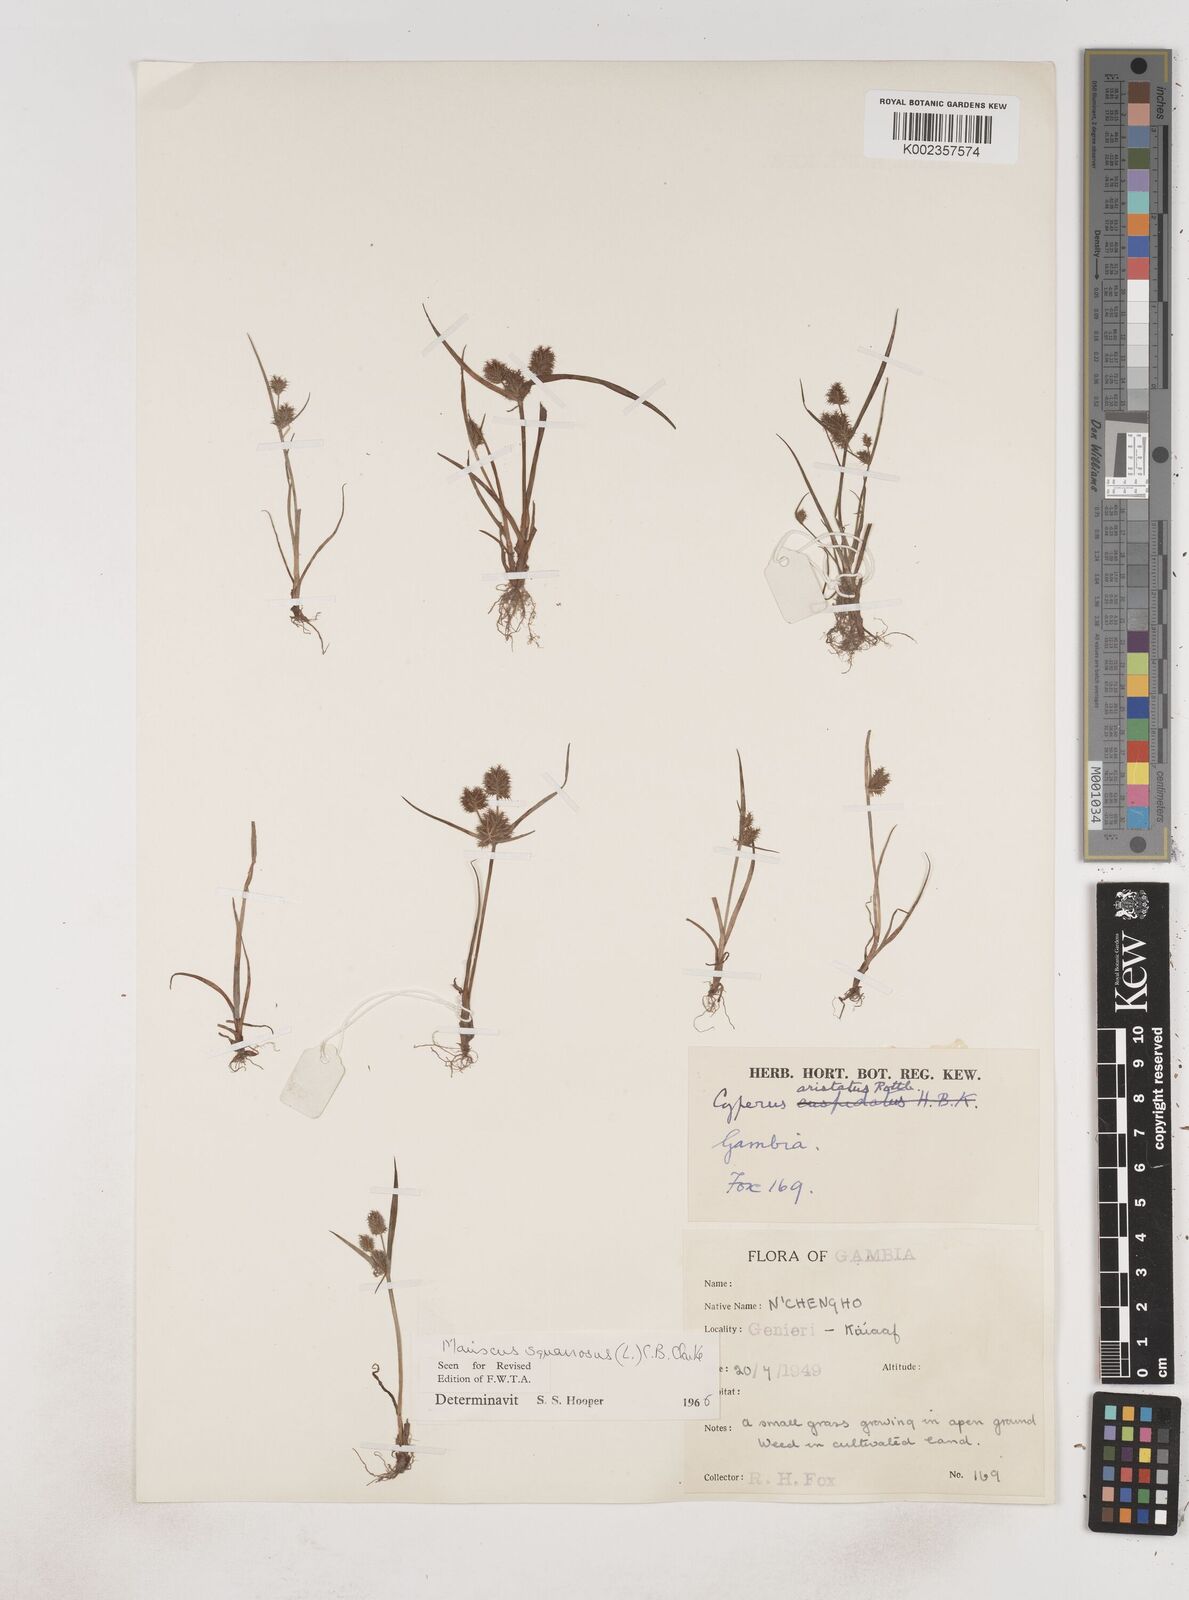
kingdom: Plantae
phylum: Tracheophyta
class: Liliopsida
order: Poales
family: Cyperaceae
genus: Cyperus
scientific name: Cyperus squarrosus
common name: Awned cyperus
